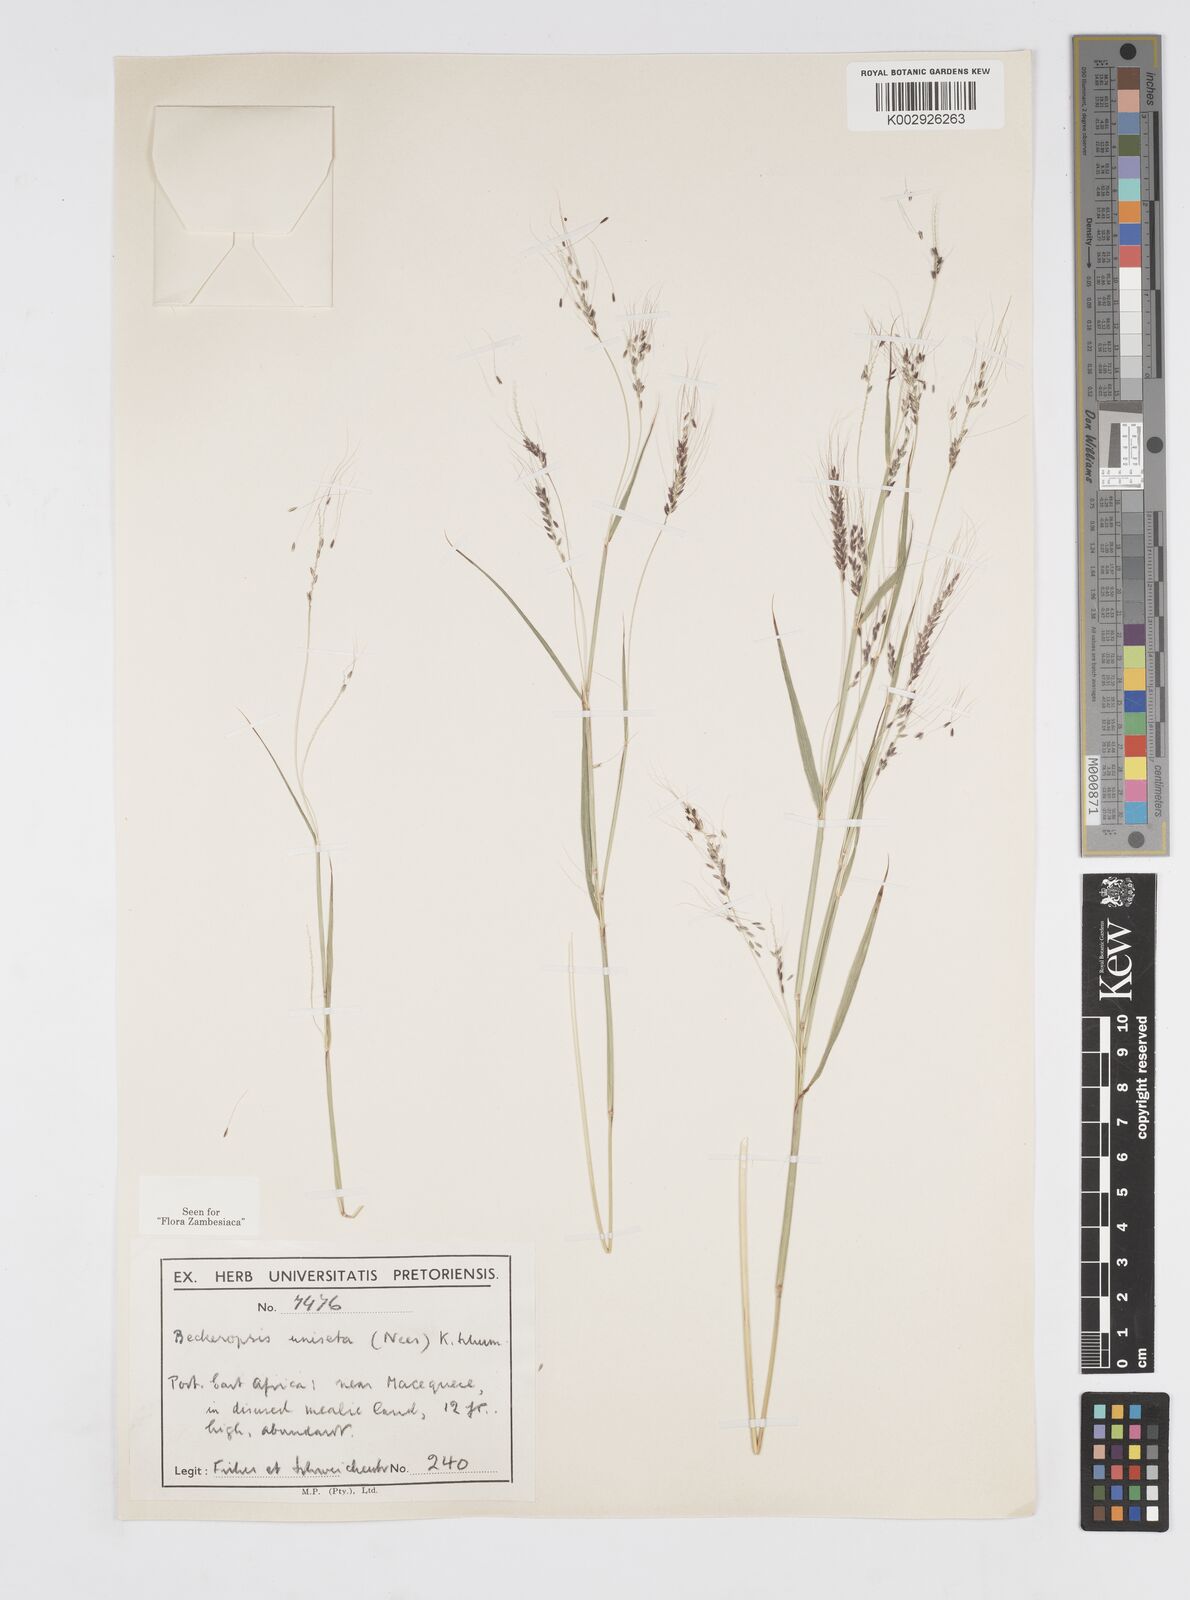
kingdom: Plantae
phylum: Tracheophyta
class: Liliopsida
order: Poales
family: Poaceae
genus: Cenchrus
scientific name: Cenchrus unisetus
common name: Natal grass
